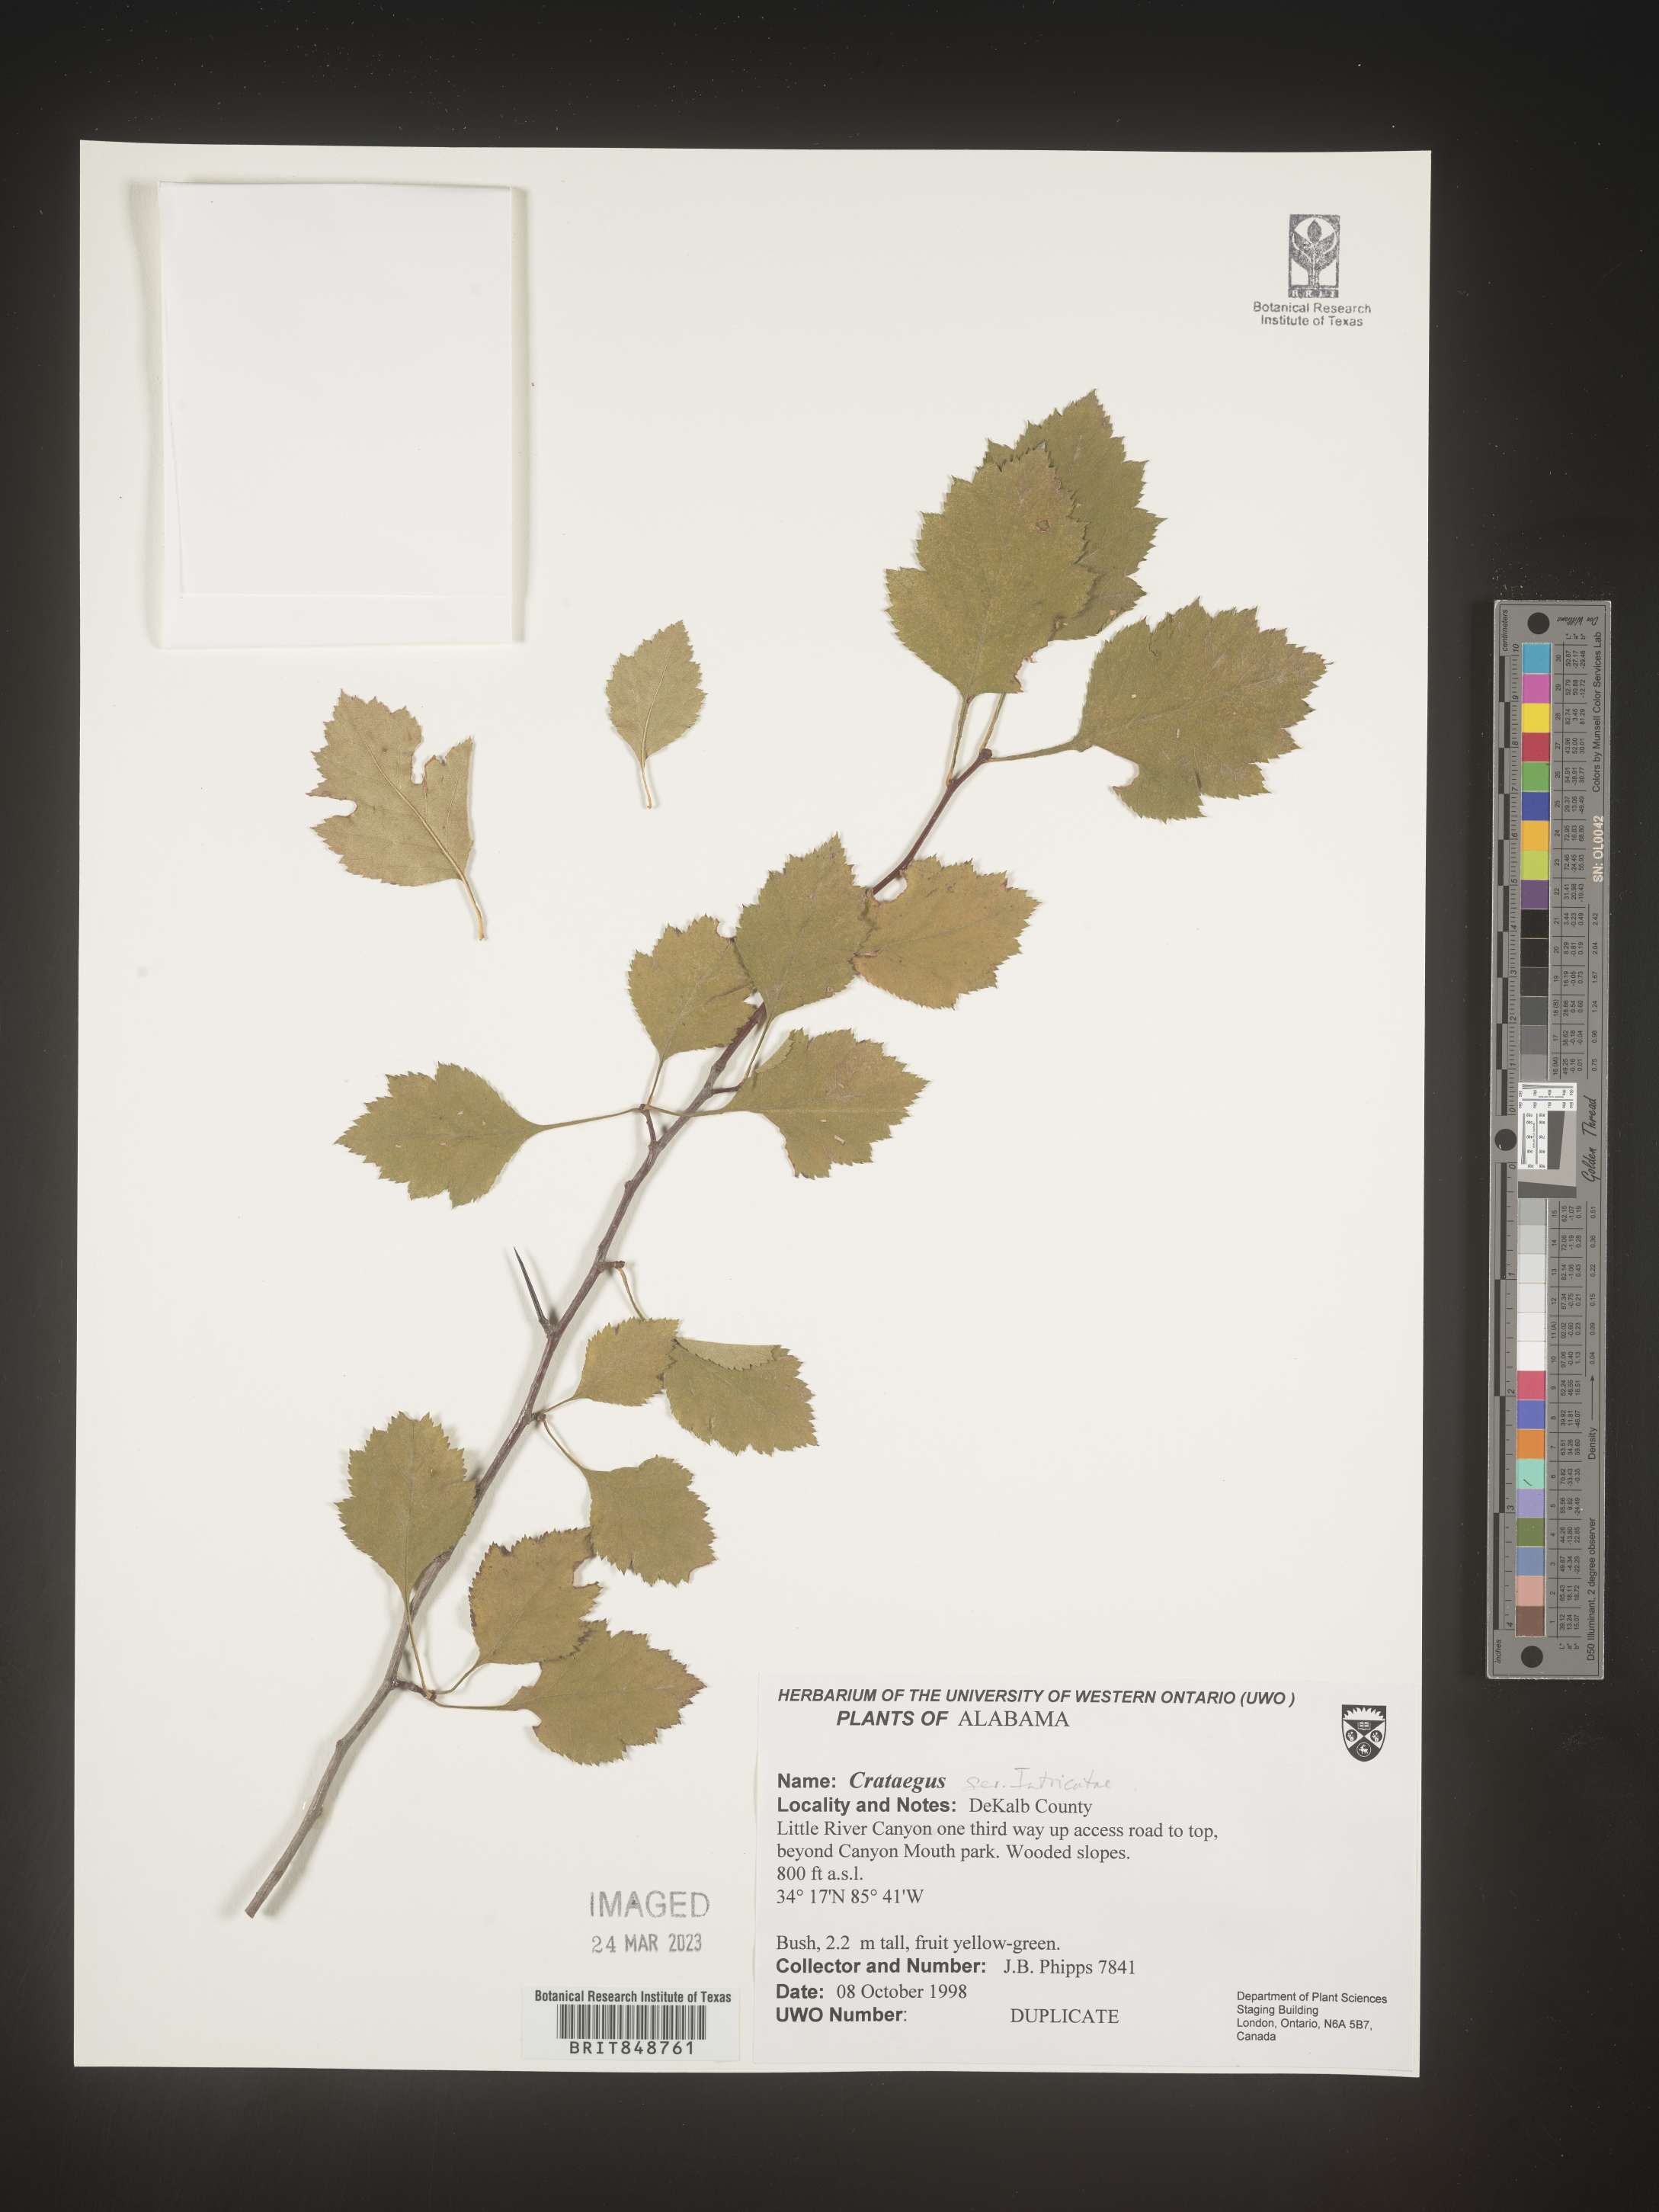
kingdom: Plantae
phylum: Tracheophyta
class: Magnoliopsida
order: Rosales
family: Rosaceae
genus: Crataegus
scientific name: Crataegus
